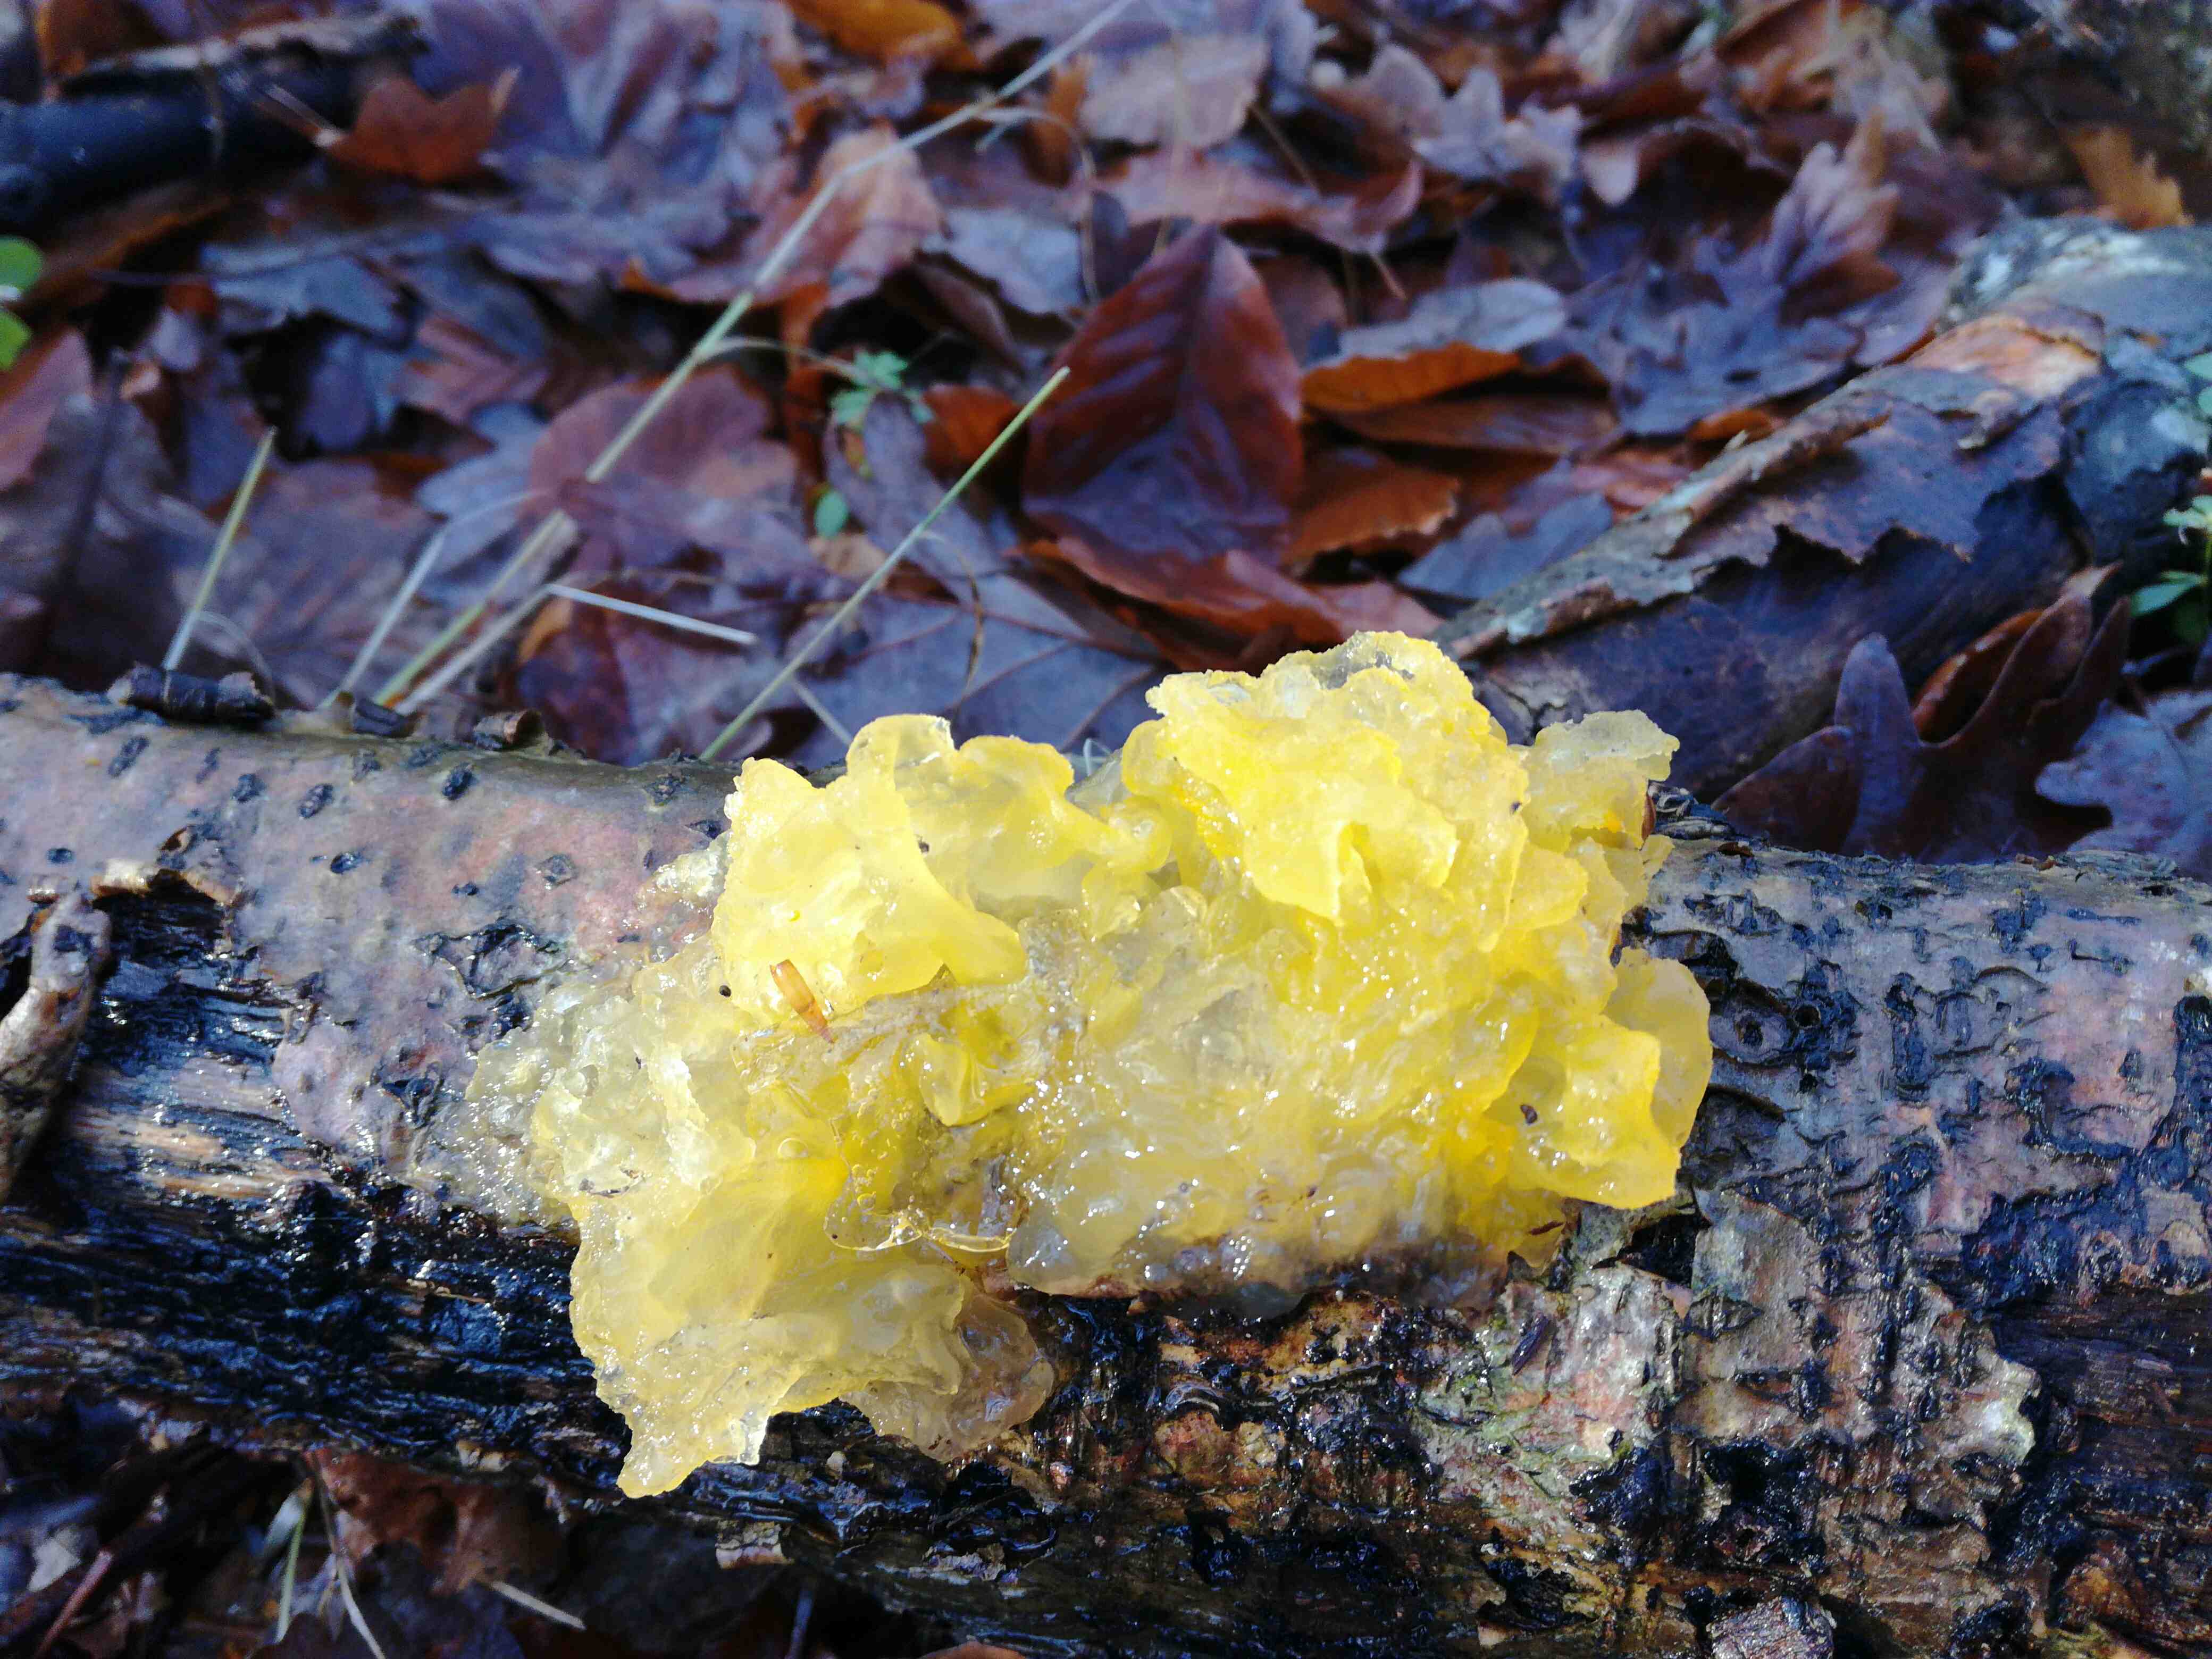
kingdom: Fungi
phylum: Basidiomycota
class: Tremellomycetes
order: Tremellales
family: Tremellaceae
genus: Tremella
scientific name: Tremella mesenterica
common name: gul bævresvamp
